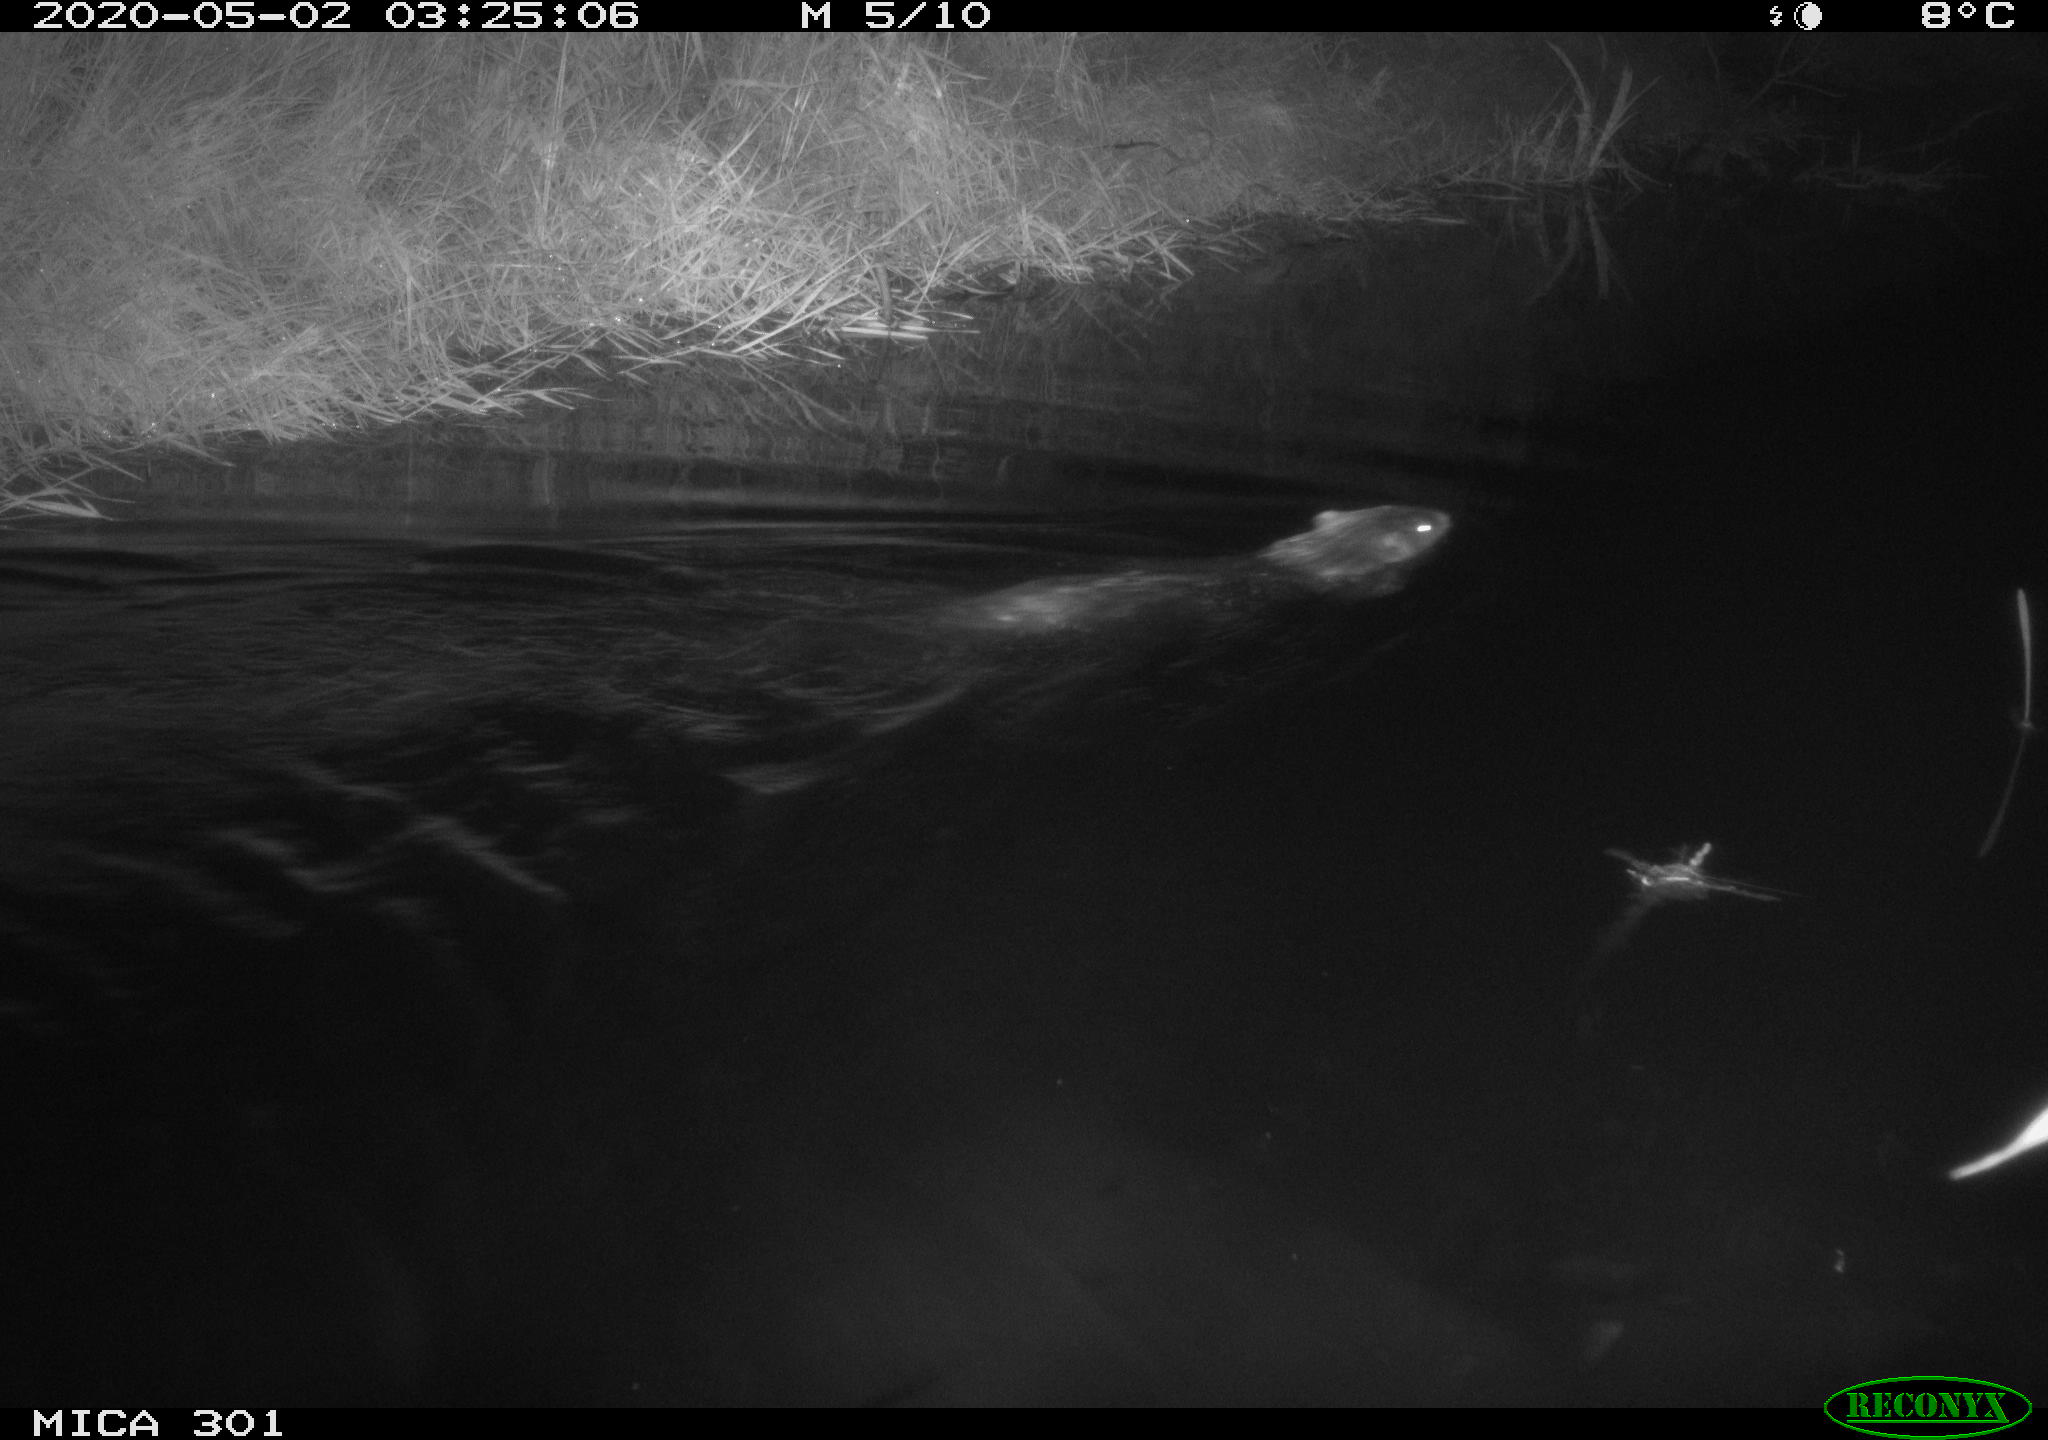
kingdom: Animalia
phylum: Chordata
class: Mammalia
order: Rodentia
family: Castoridae
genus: Castor
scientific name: Castor fiber
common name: Eurasian beaver
